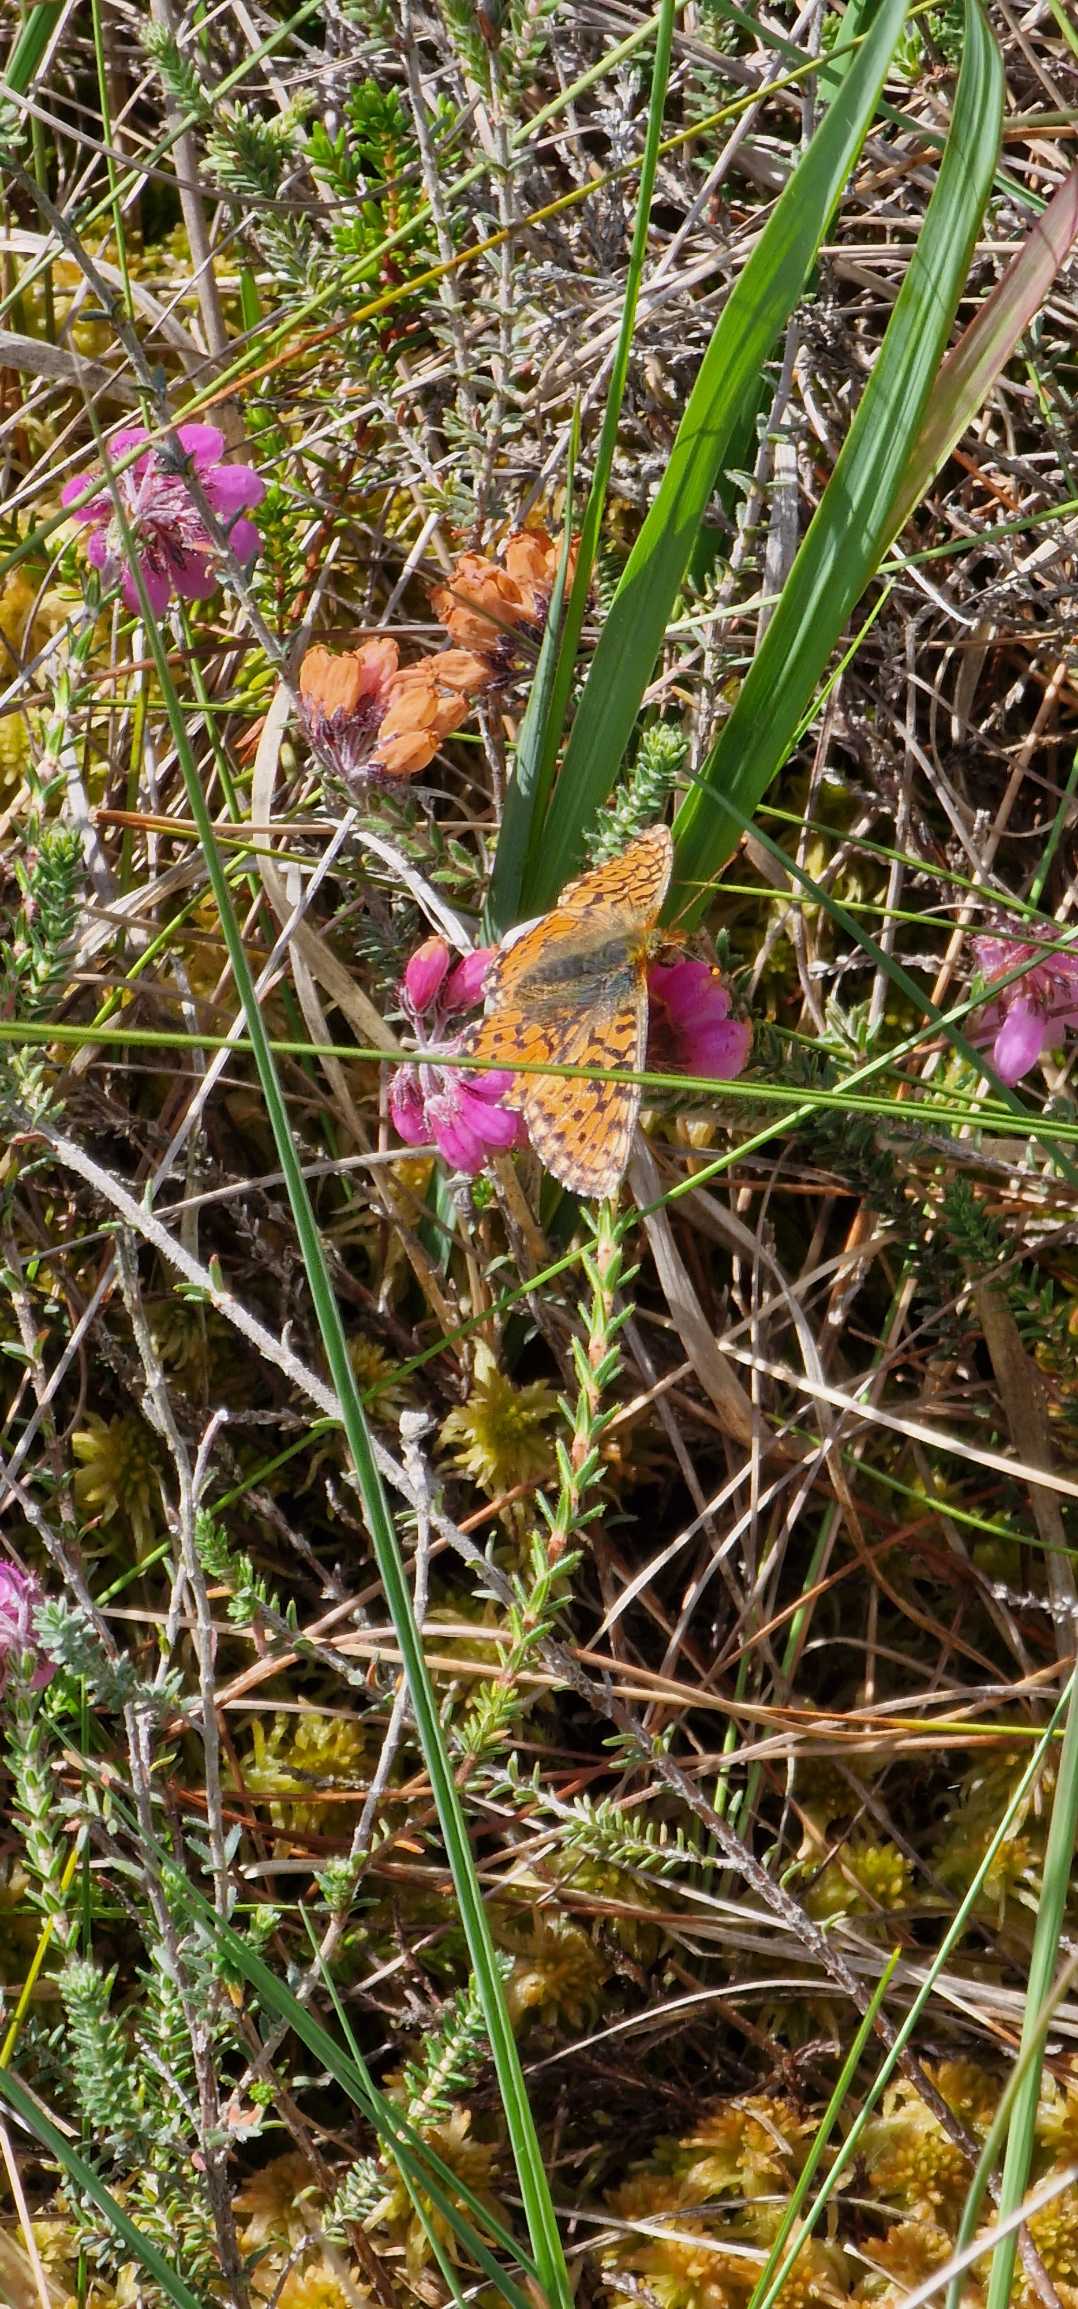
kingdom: Animalia
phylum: Arthropoda
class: Insecta
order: Lepidoptera
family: Nymphalidae
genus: Boloria
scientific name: Boloria aquilonaris
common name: Moseperlemorsommerfugl
